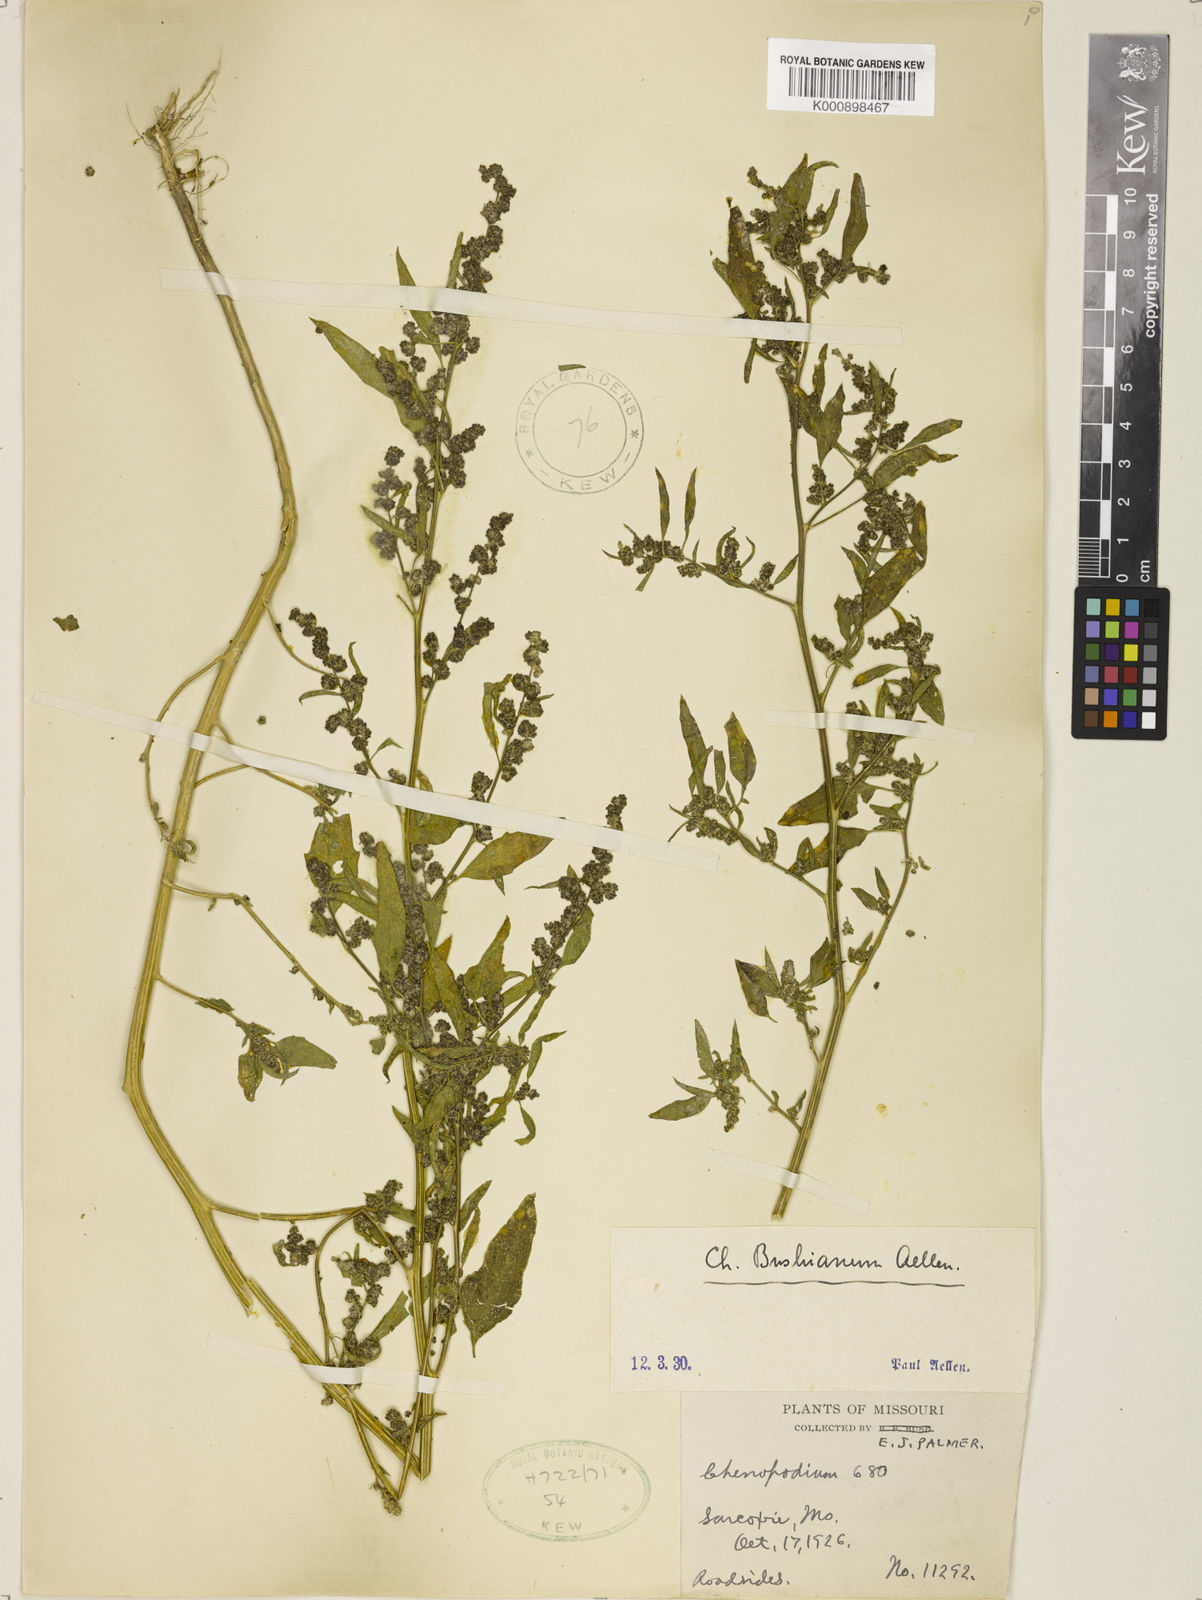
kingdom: Plantae
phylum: Tracheophyta
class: Magnoliopsida
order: Caryophyllales
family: Amaranthaceae
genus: Chenopodium
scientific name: Chenopodium berlandieri
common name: Pit-seed goosefoot
